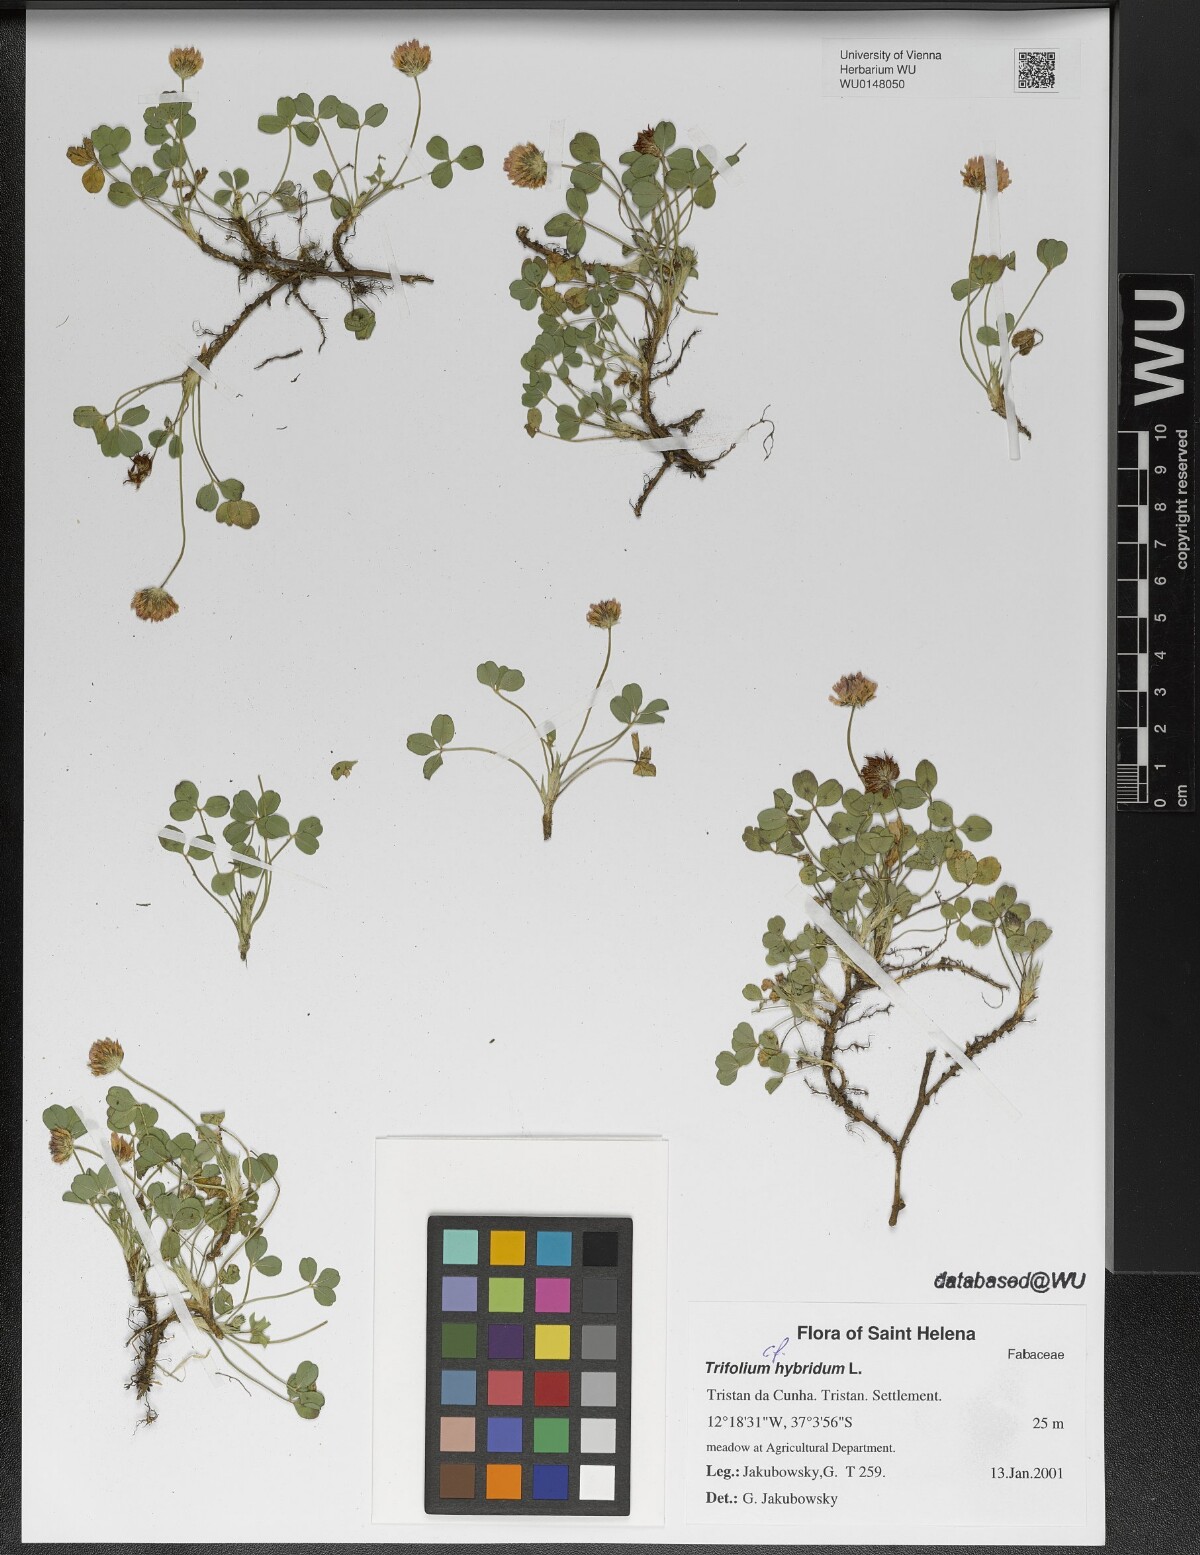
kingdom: Plantae
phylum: Tracheophyta
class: Magnoliopsida
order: Fabales
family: Fabaceae
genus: Trifolium
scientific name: Trifolium hybridum
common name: Alsike clover
